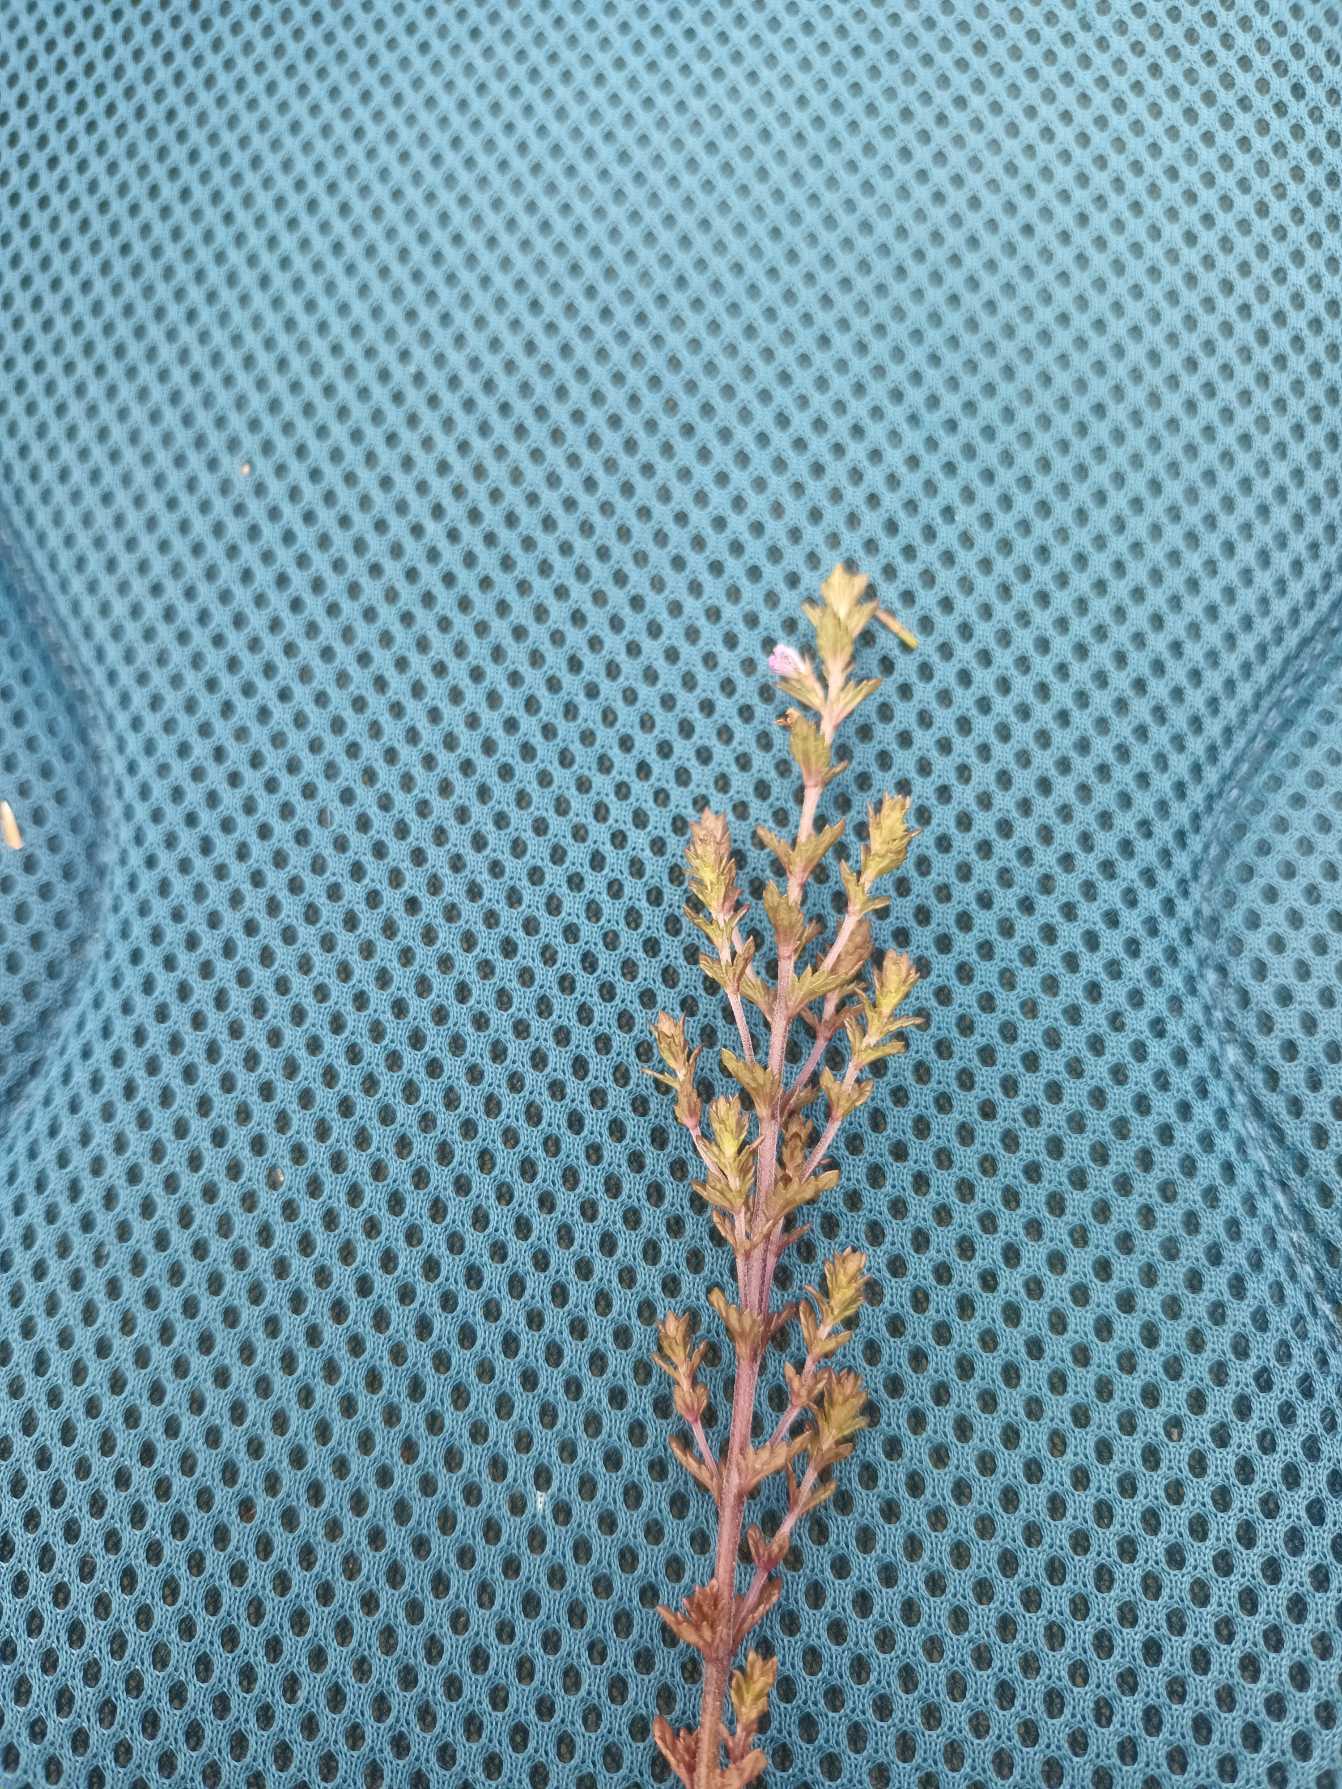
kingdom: Plantae
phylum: Tracheophyta
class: Magnoliopsida
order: Lamiales
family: Orobanchaceae
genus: Euphrasia
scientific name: Euphrasia micrantha
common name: Lyng-øjentrøst
